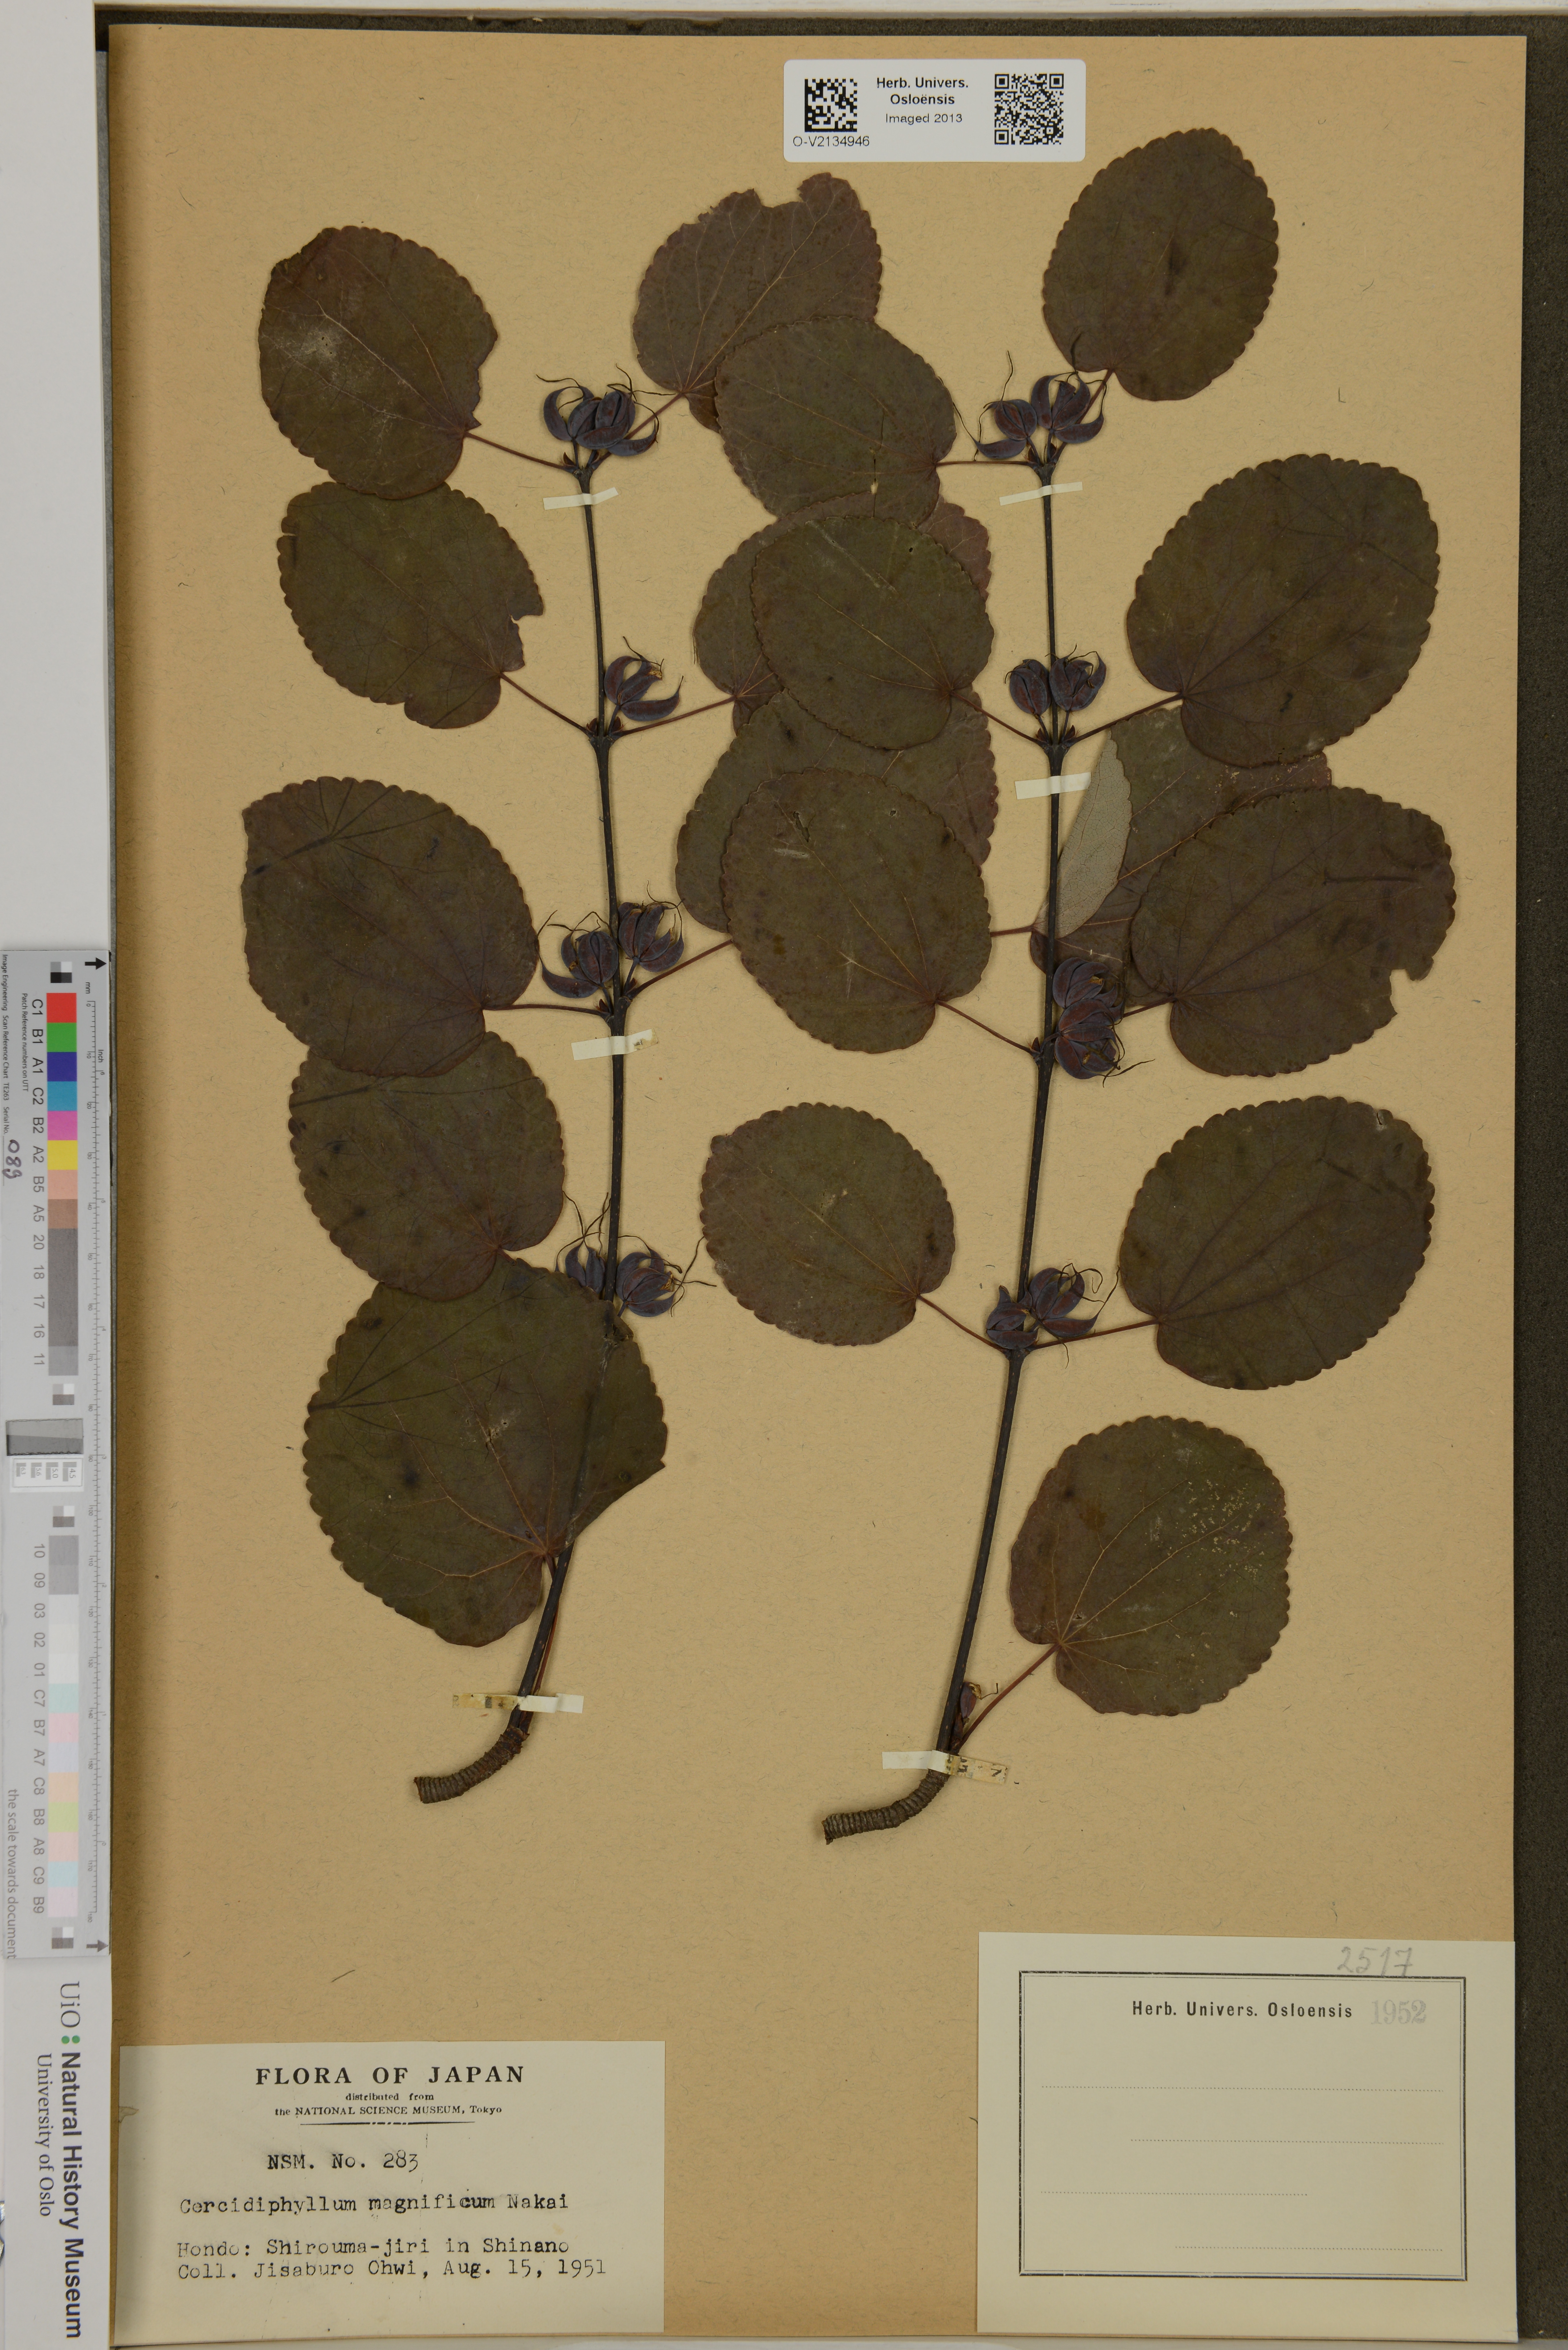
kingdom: Plantae
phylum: Tracheophyta
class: Magnoliopsida
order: Saxifragales
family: Cercidiphyllaceae
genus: Cercidiphyllum
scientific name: Cercidiphyllum magnificum
